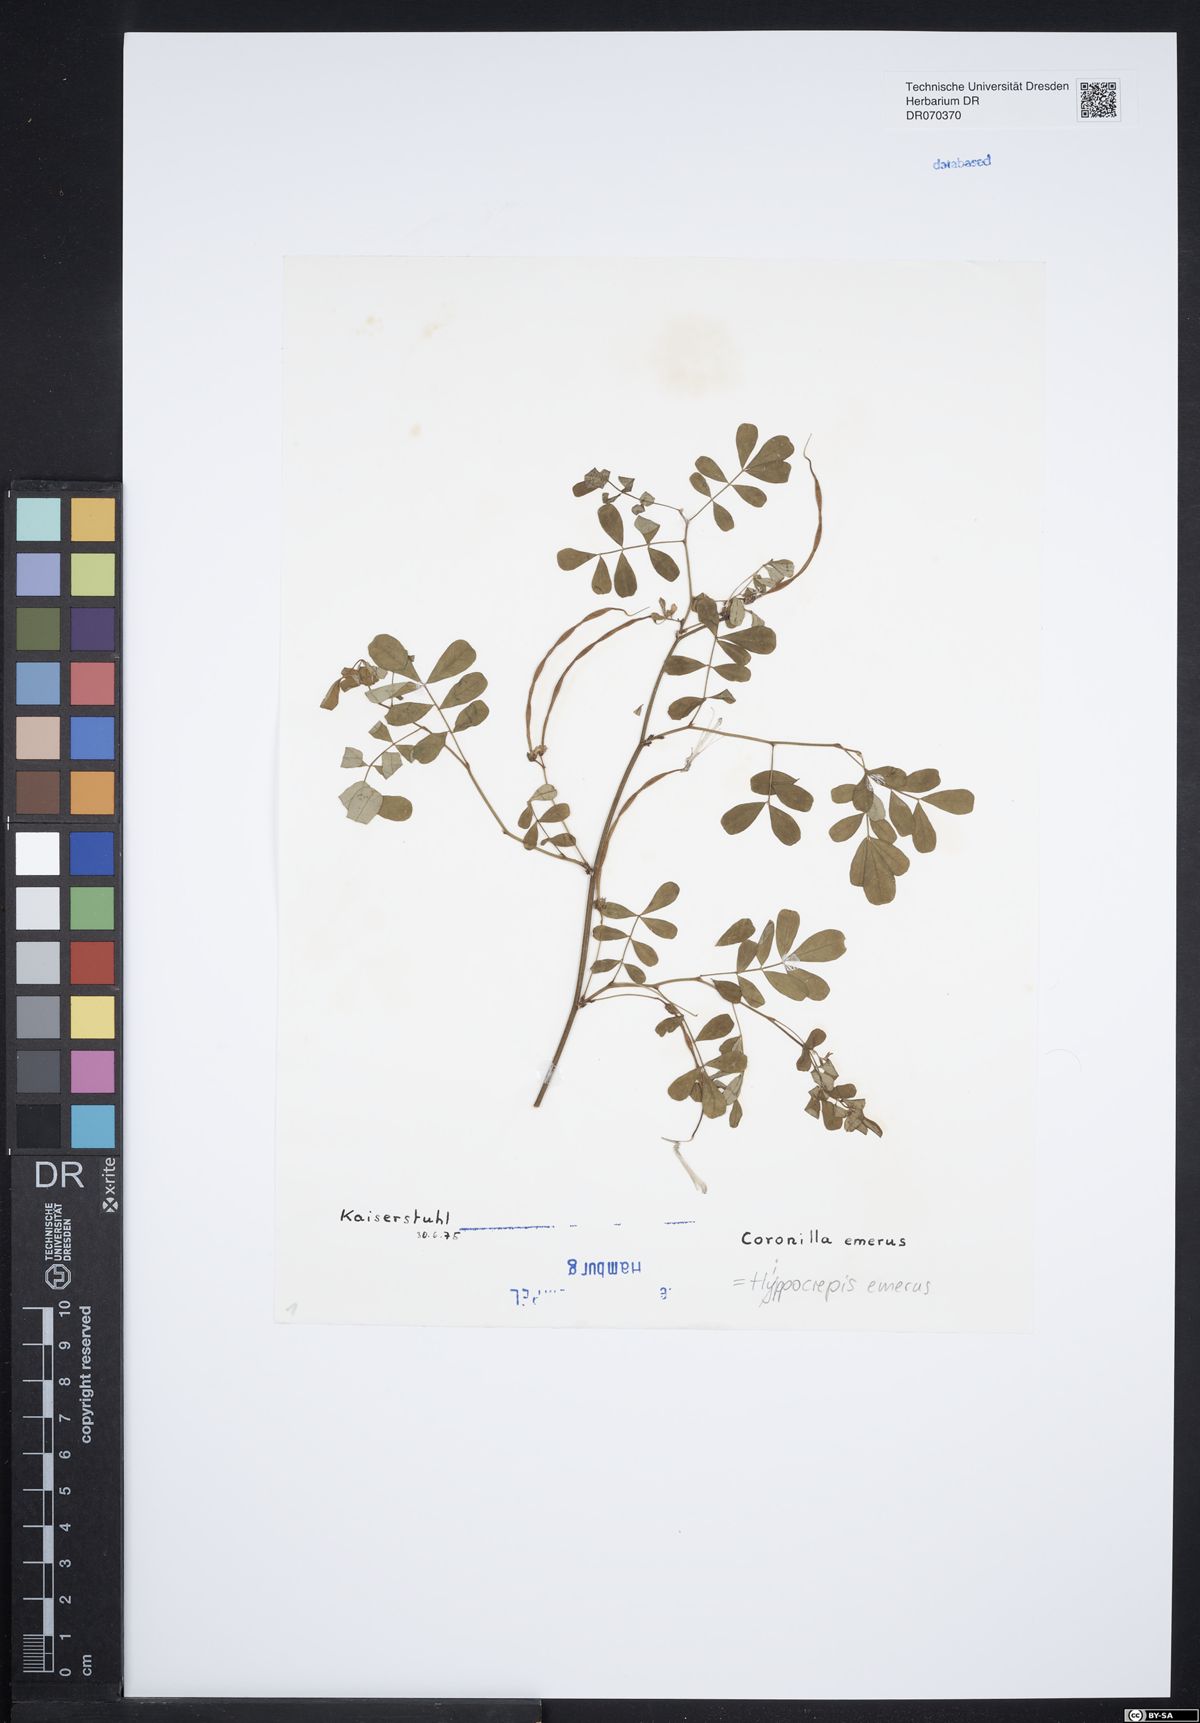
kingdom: Plantae
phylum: Tracheophyta
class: Magnoliopsida
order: Fabales
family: Fabaceae
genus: Hippocrepis
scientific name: Hippocrepis emerus
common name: Scorpion senna
